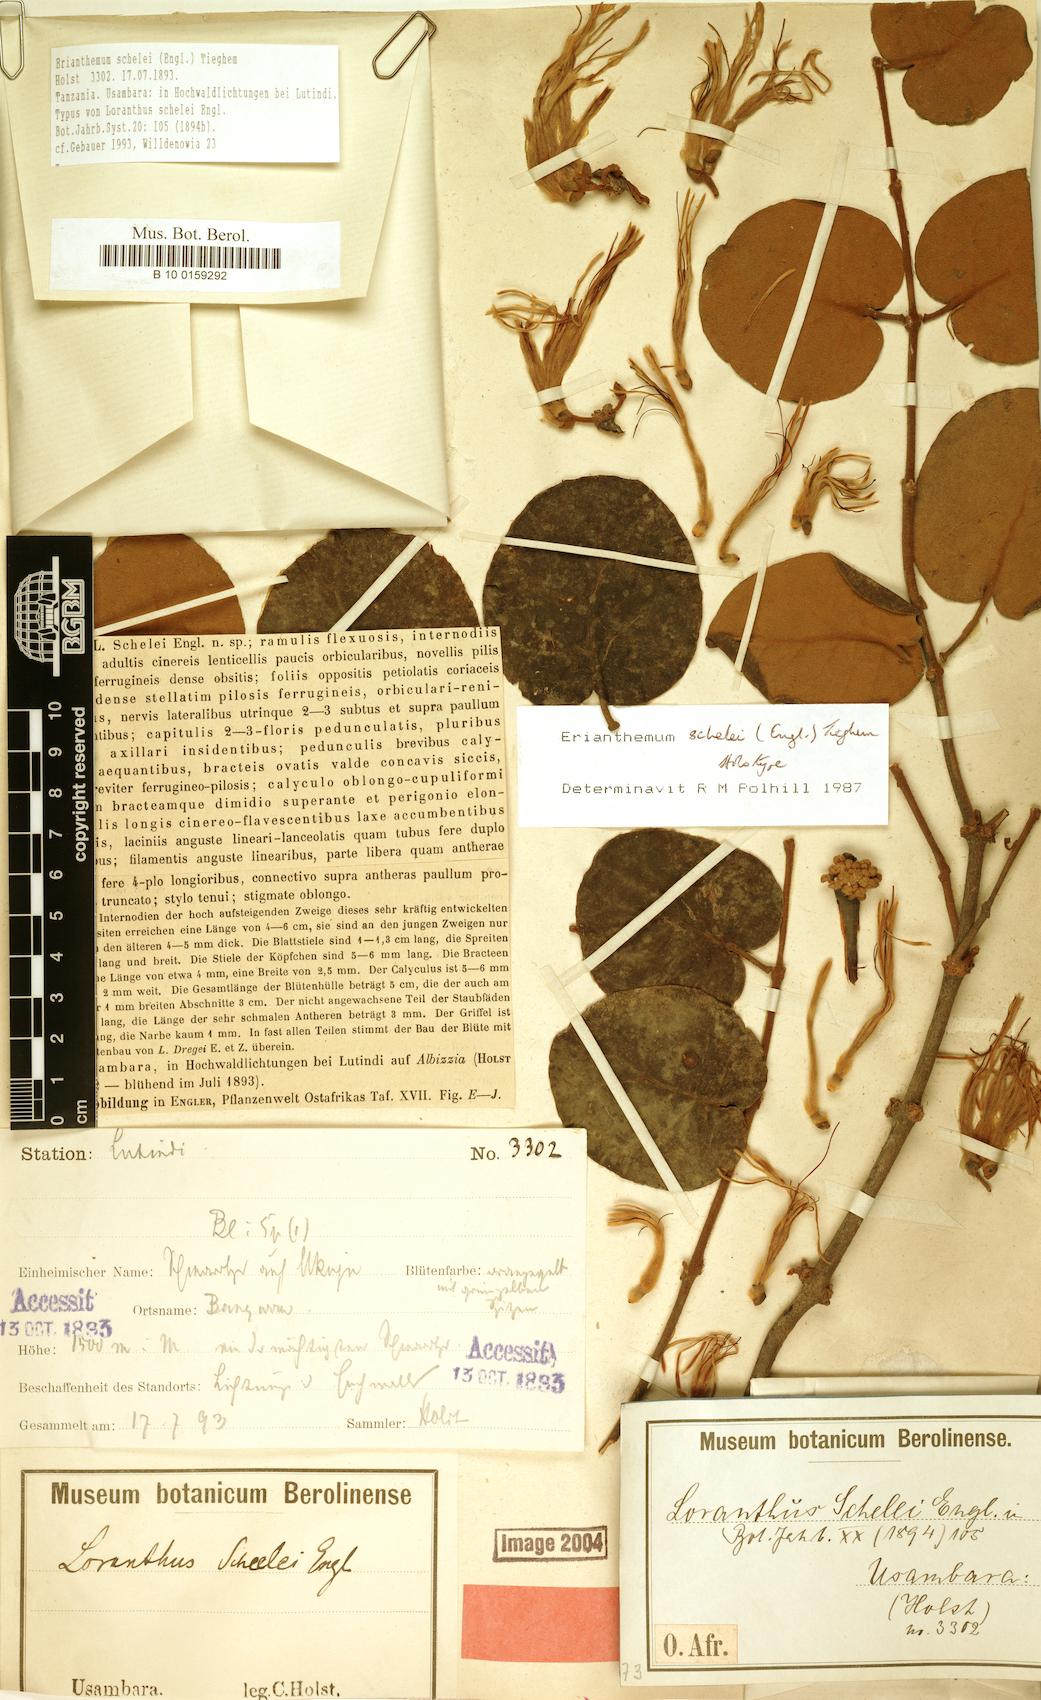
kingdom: Plantae
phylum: Tracheophyta
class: Magnoliopsida
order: Santalales
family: Loranthaceae
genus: Erianthemum
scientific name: Erianthemum schelei
